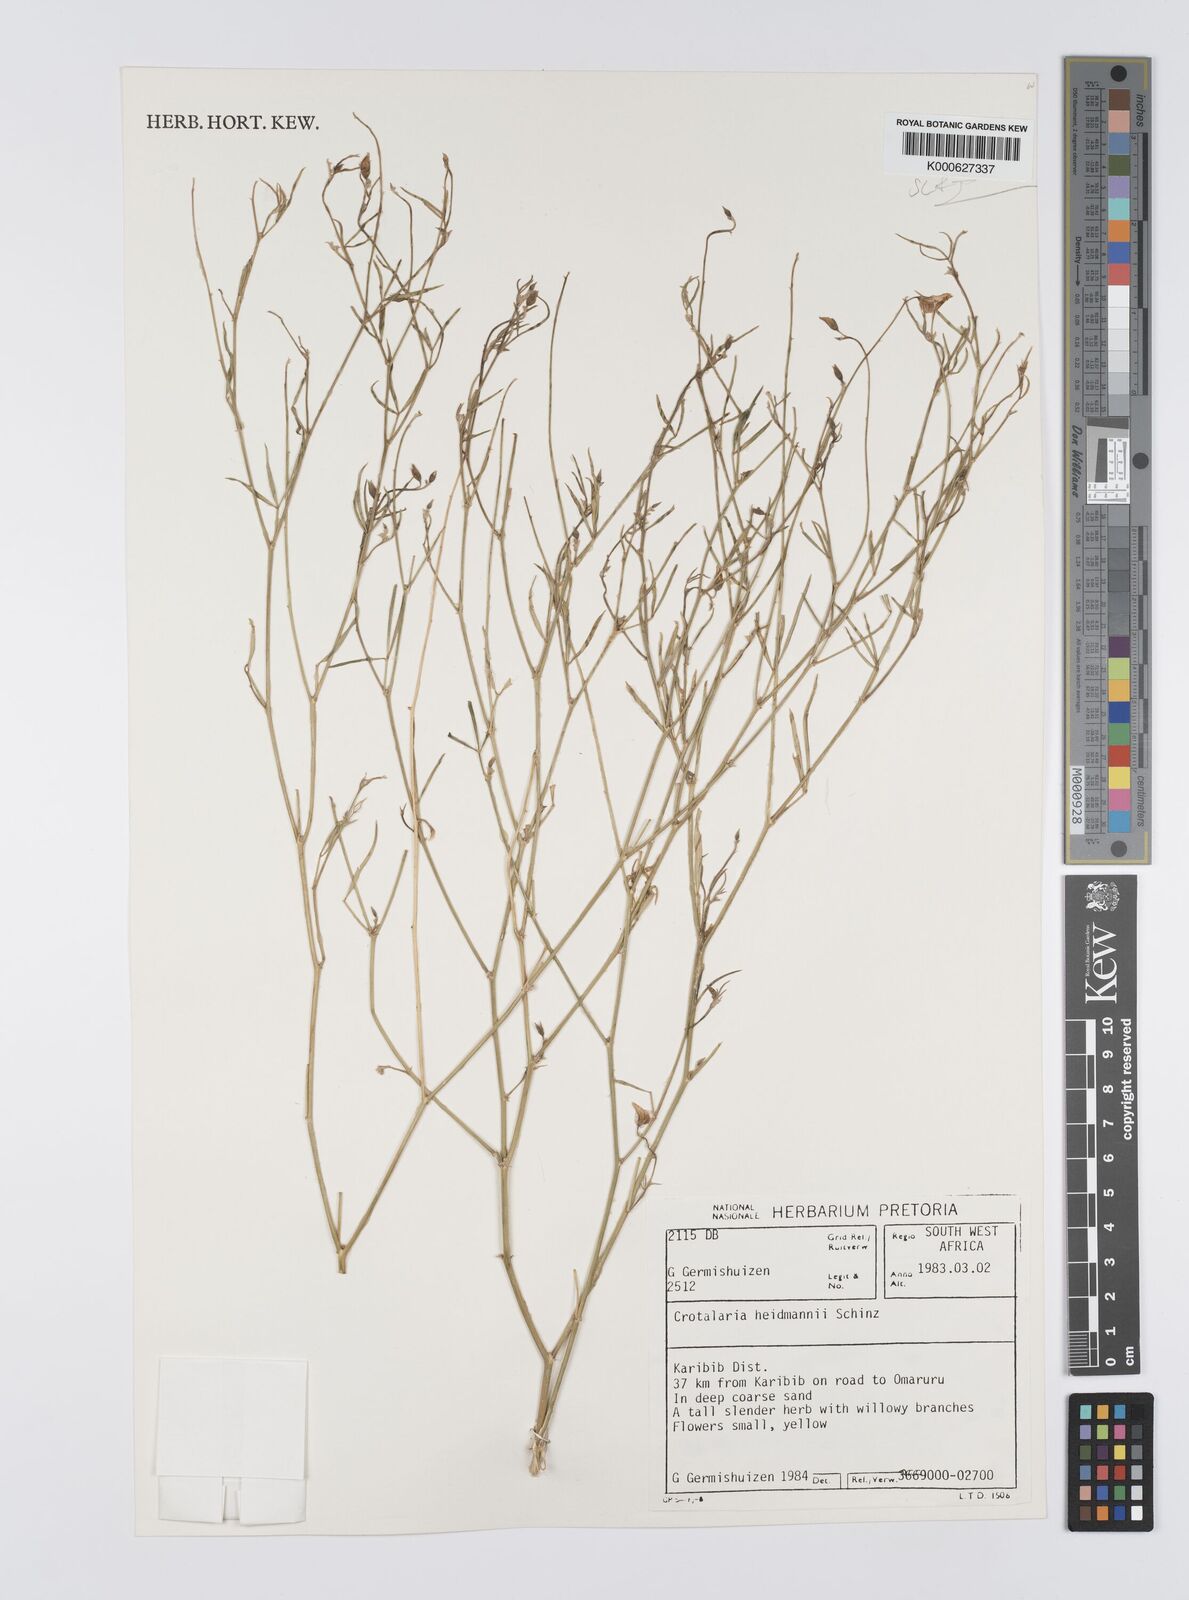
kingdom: Plantae
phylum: Tracheophyta
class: Magnoliopsida
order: Fabales
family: Fabaceae
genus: Crotalaria
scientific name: Crotalaria heidmannii
